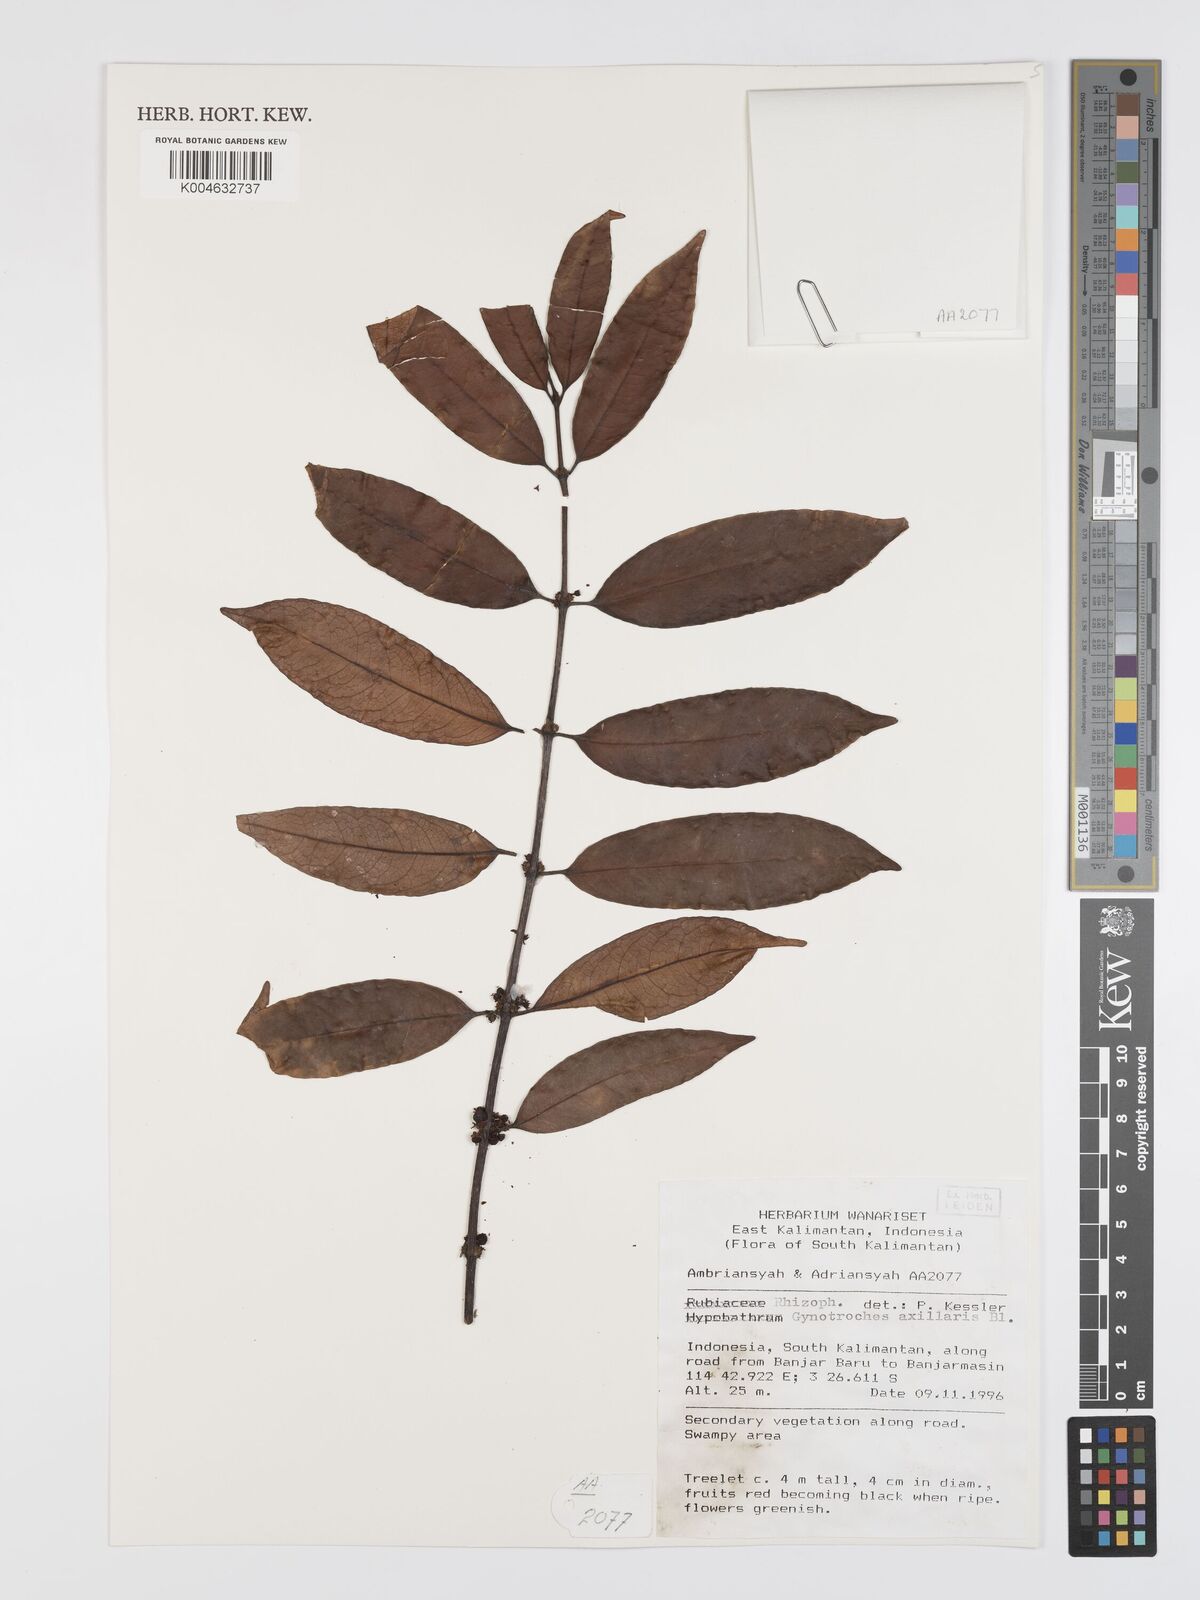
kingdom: Plantae
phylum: Tracheophyta
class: Magnoliopsida
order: Malpighiales
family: Rhizophoraceae
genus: Gynotroches
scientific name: Gynotroches axillaris
